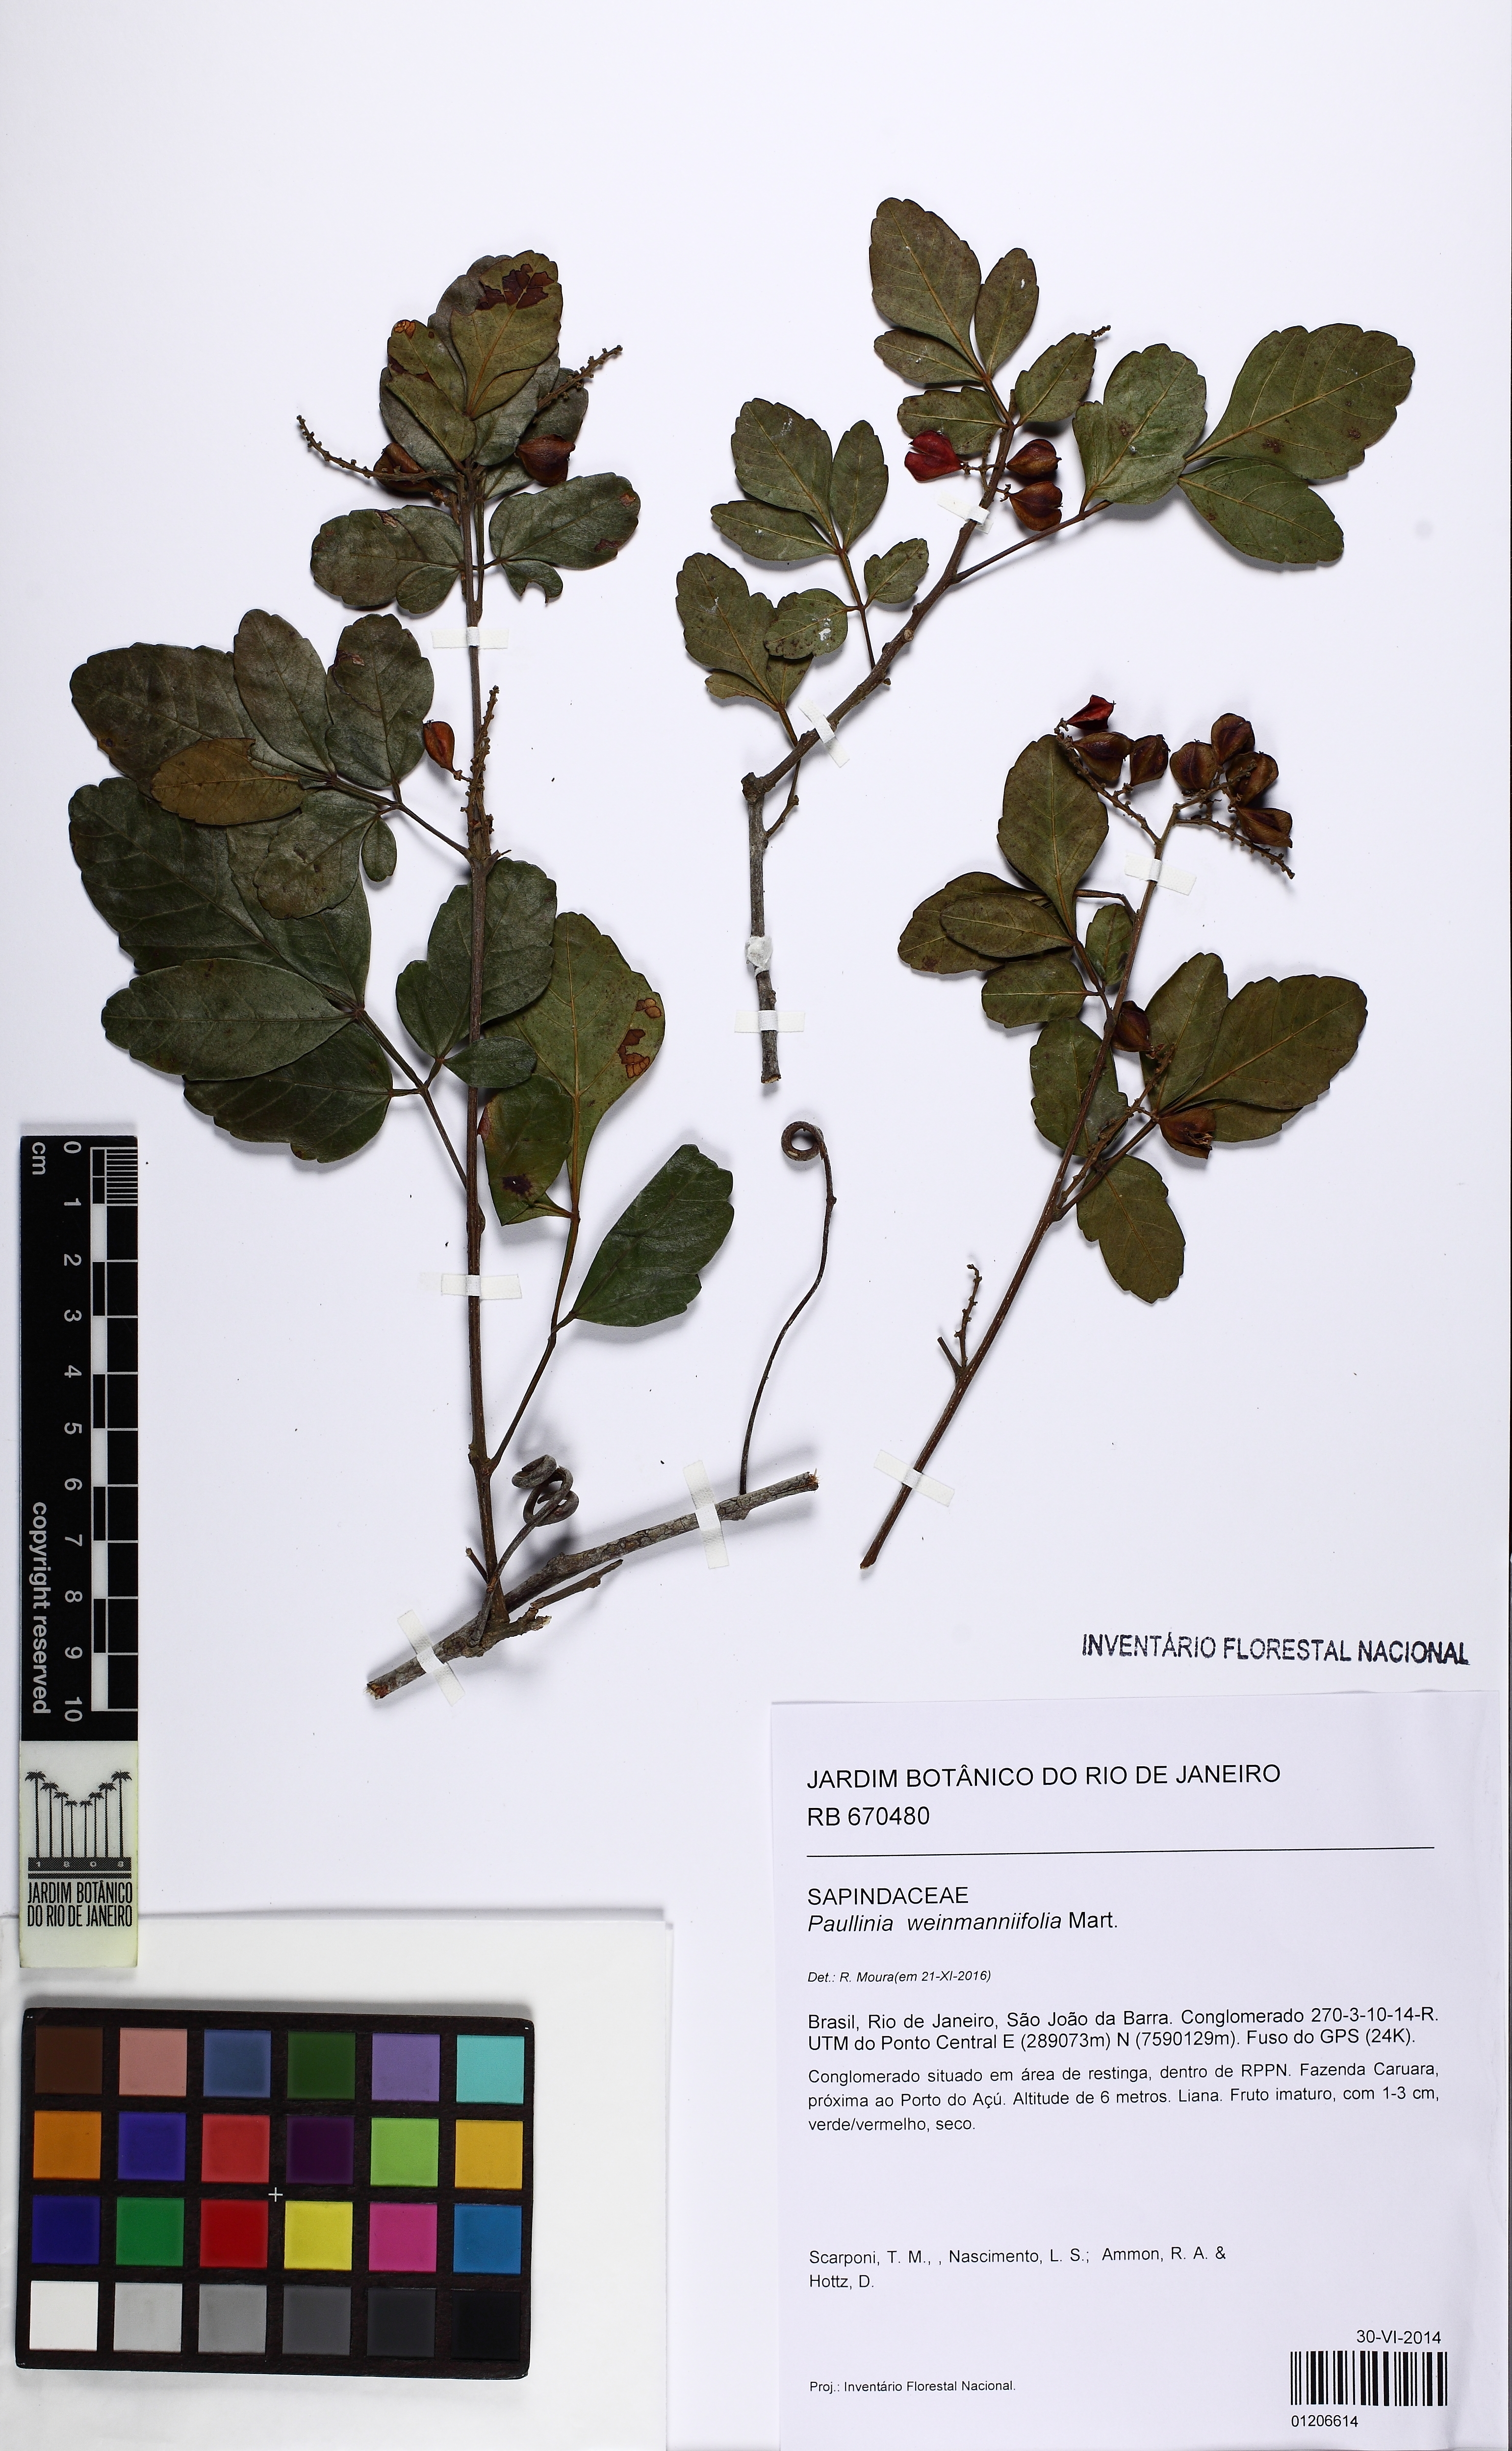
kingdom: Plantae
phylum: Tracheophyta
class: Magnoliopsida
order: Sapindales
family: Sapindaceae
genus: Paullinia
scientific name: Paullinia weinmanniifolia
